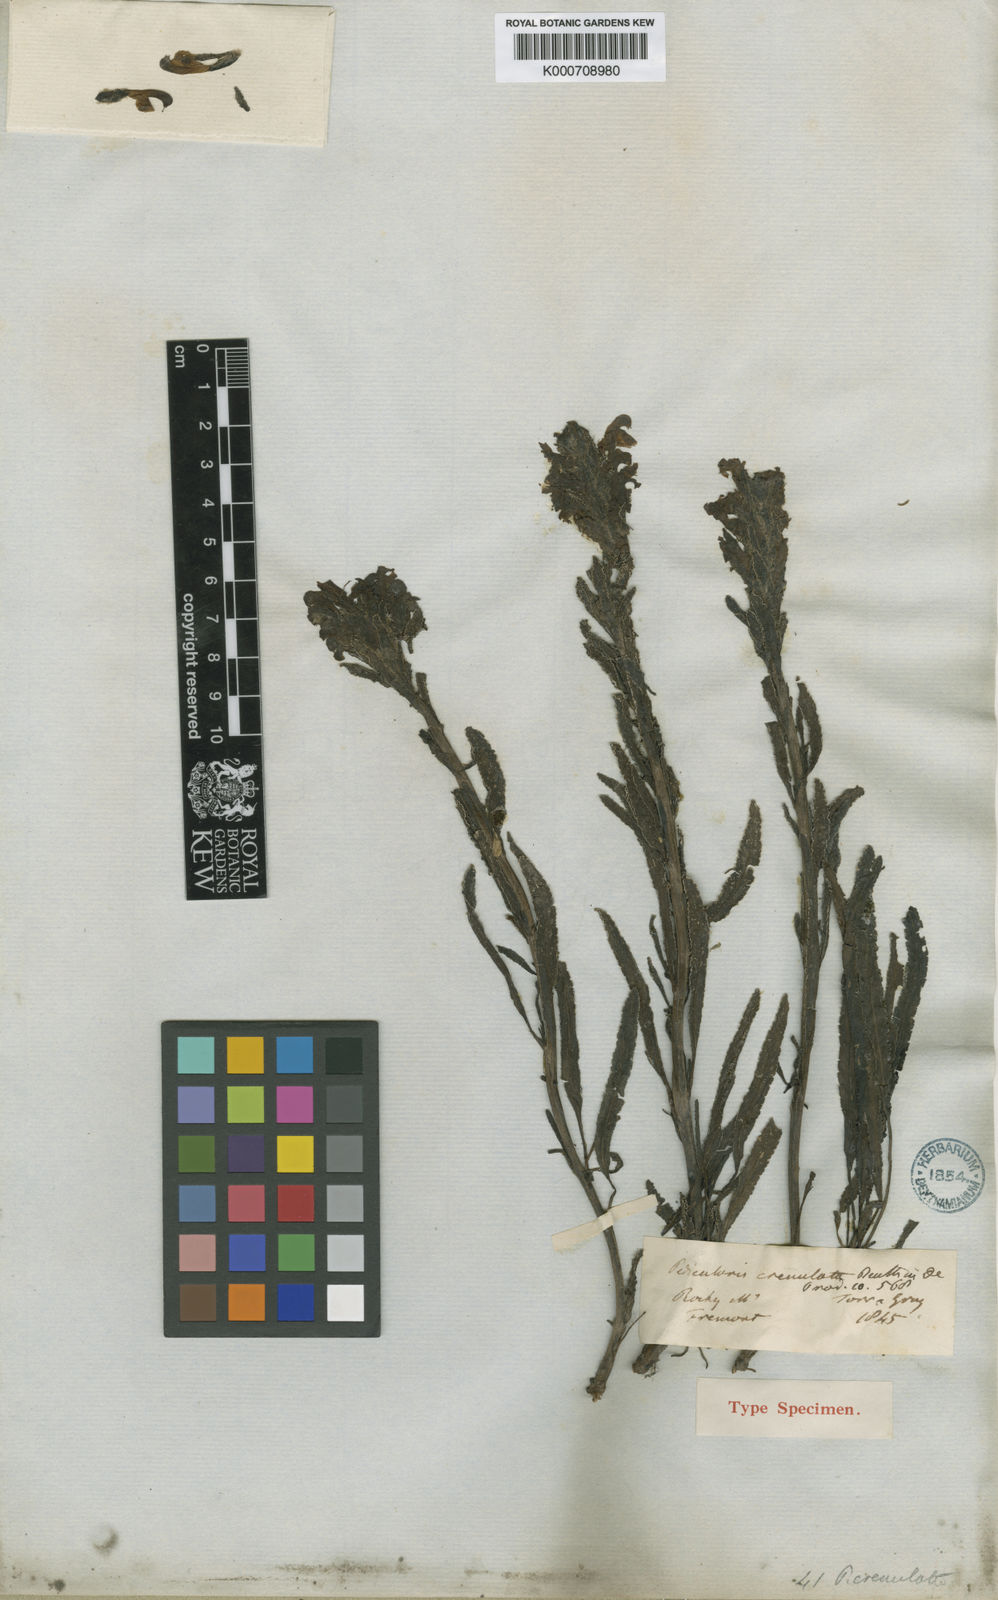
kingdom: Plantae
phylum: Tracheophyta
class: Magnoliopsida
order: Lamiales
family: Orobanchaceae
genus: Pedicularis
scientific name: Pedicularis crenulata
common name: Meadow lousewort
